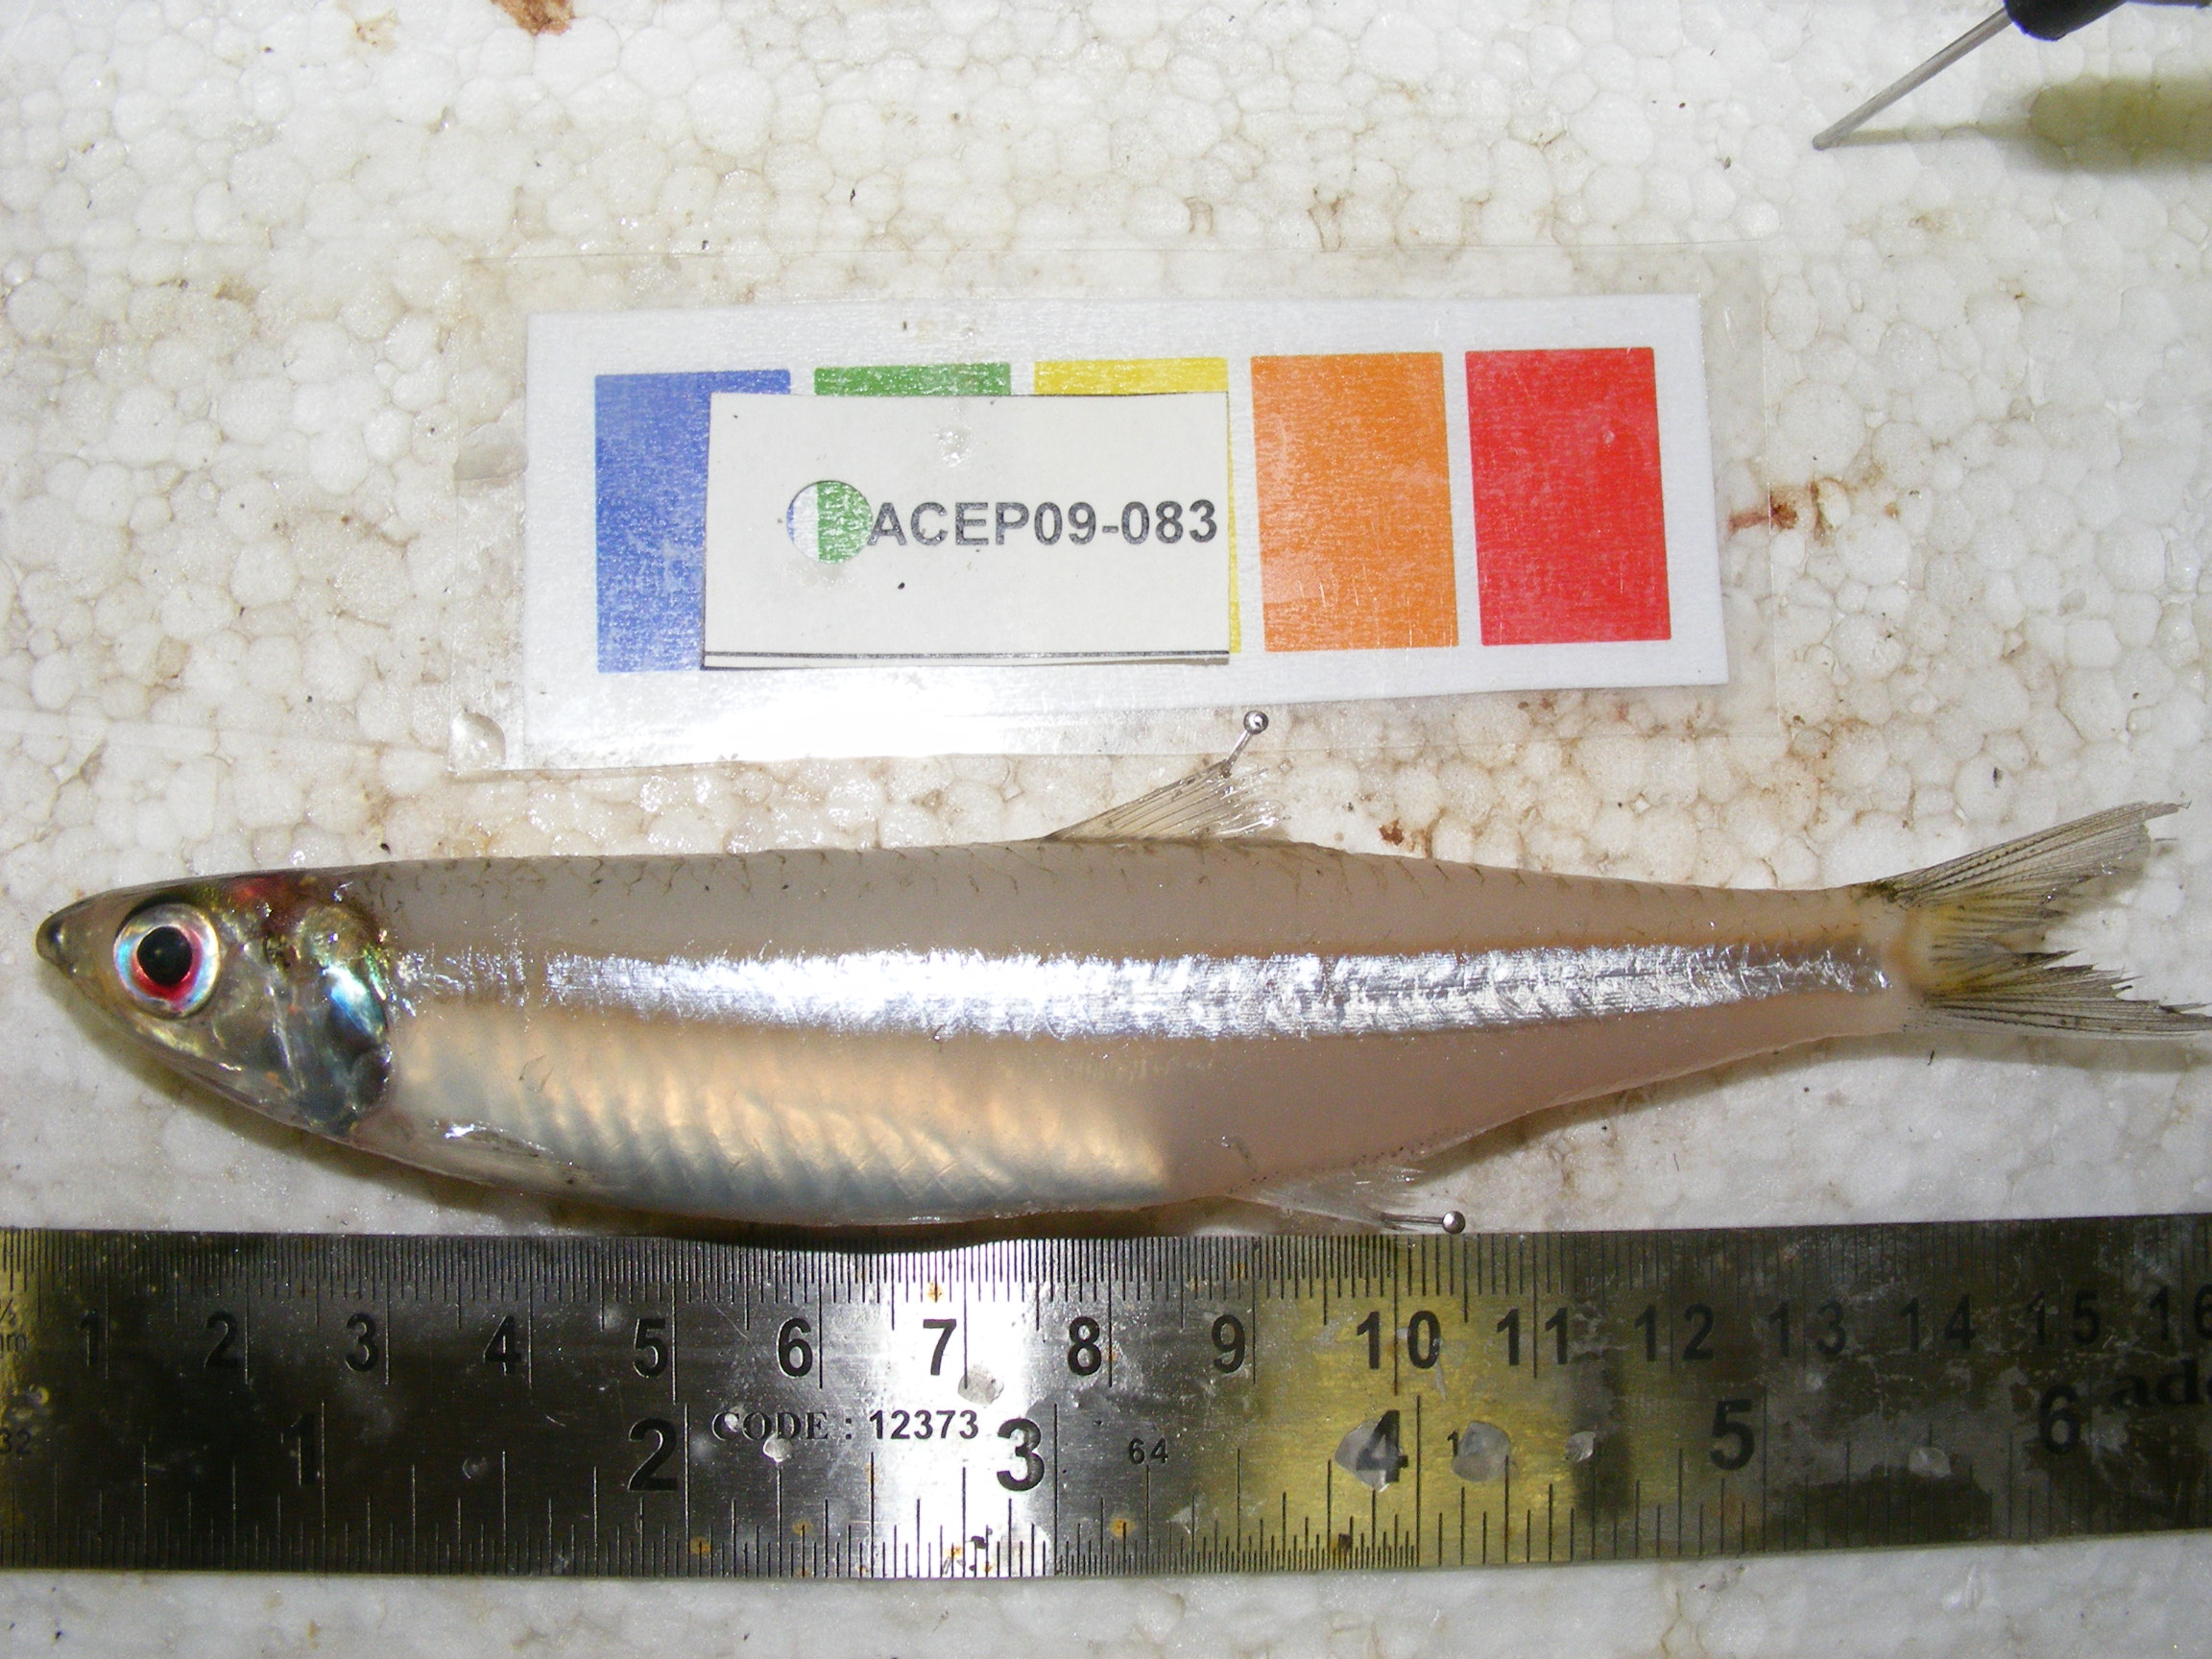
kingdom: Animalia
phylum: Chordata
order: Clupeiformes
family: Engraulidae
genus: Stolephorus
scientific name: Stolephorus
